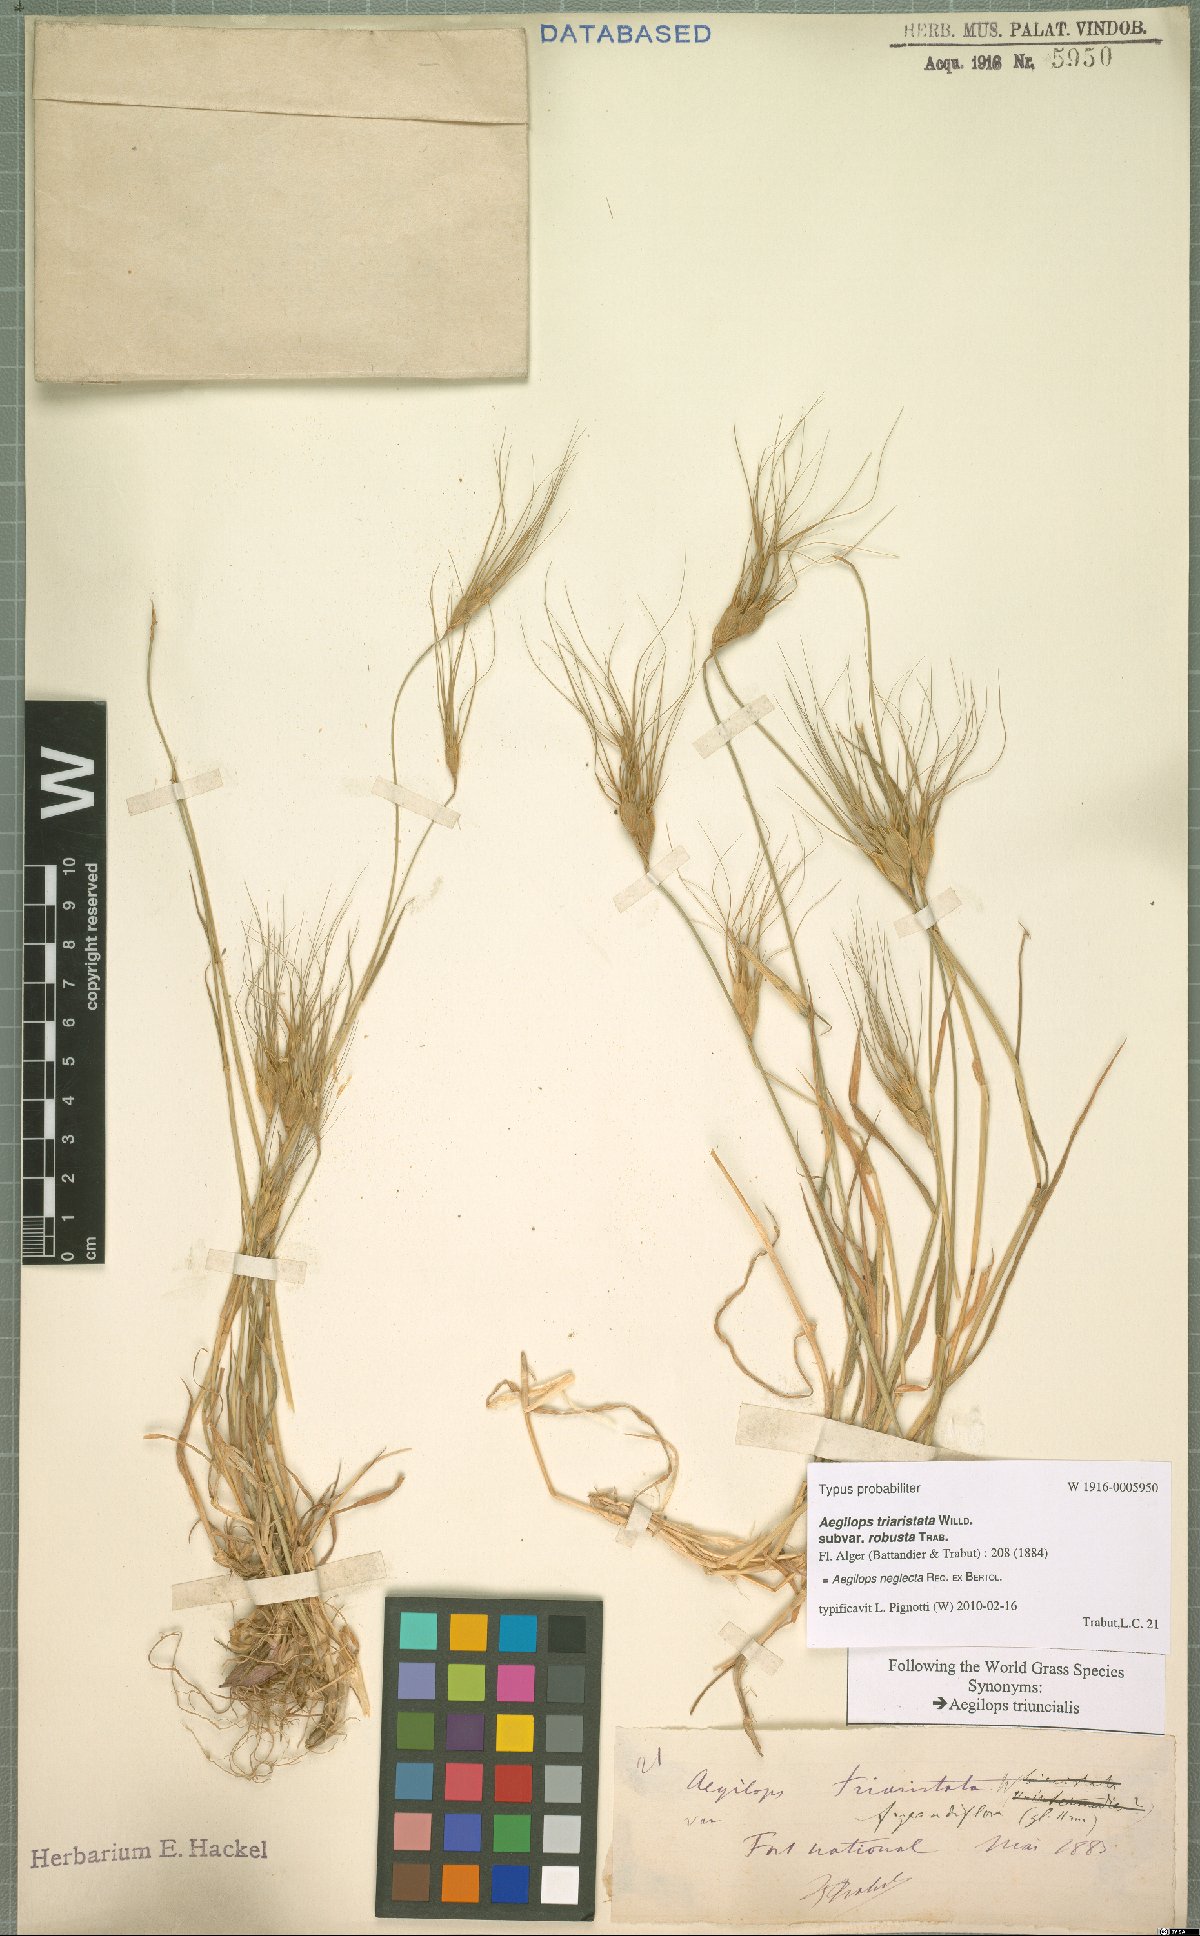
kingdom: Plantae
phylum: Tracheophyta
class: Liliopsida
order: Poales
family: Poaceae
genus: Aegilops
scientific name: Aegilops neglecta
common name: Three-awn goat grass
